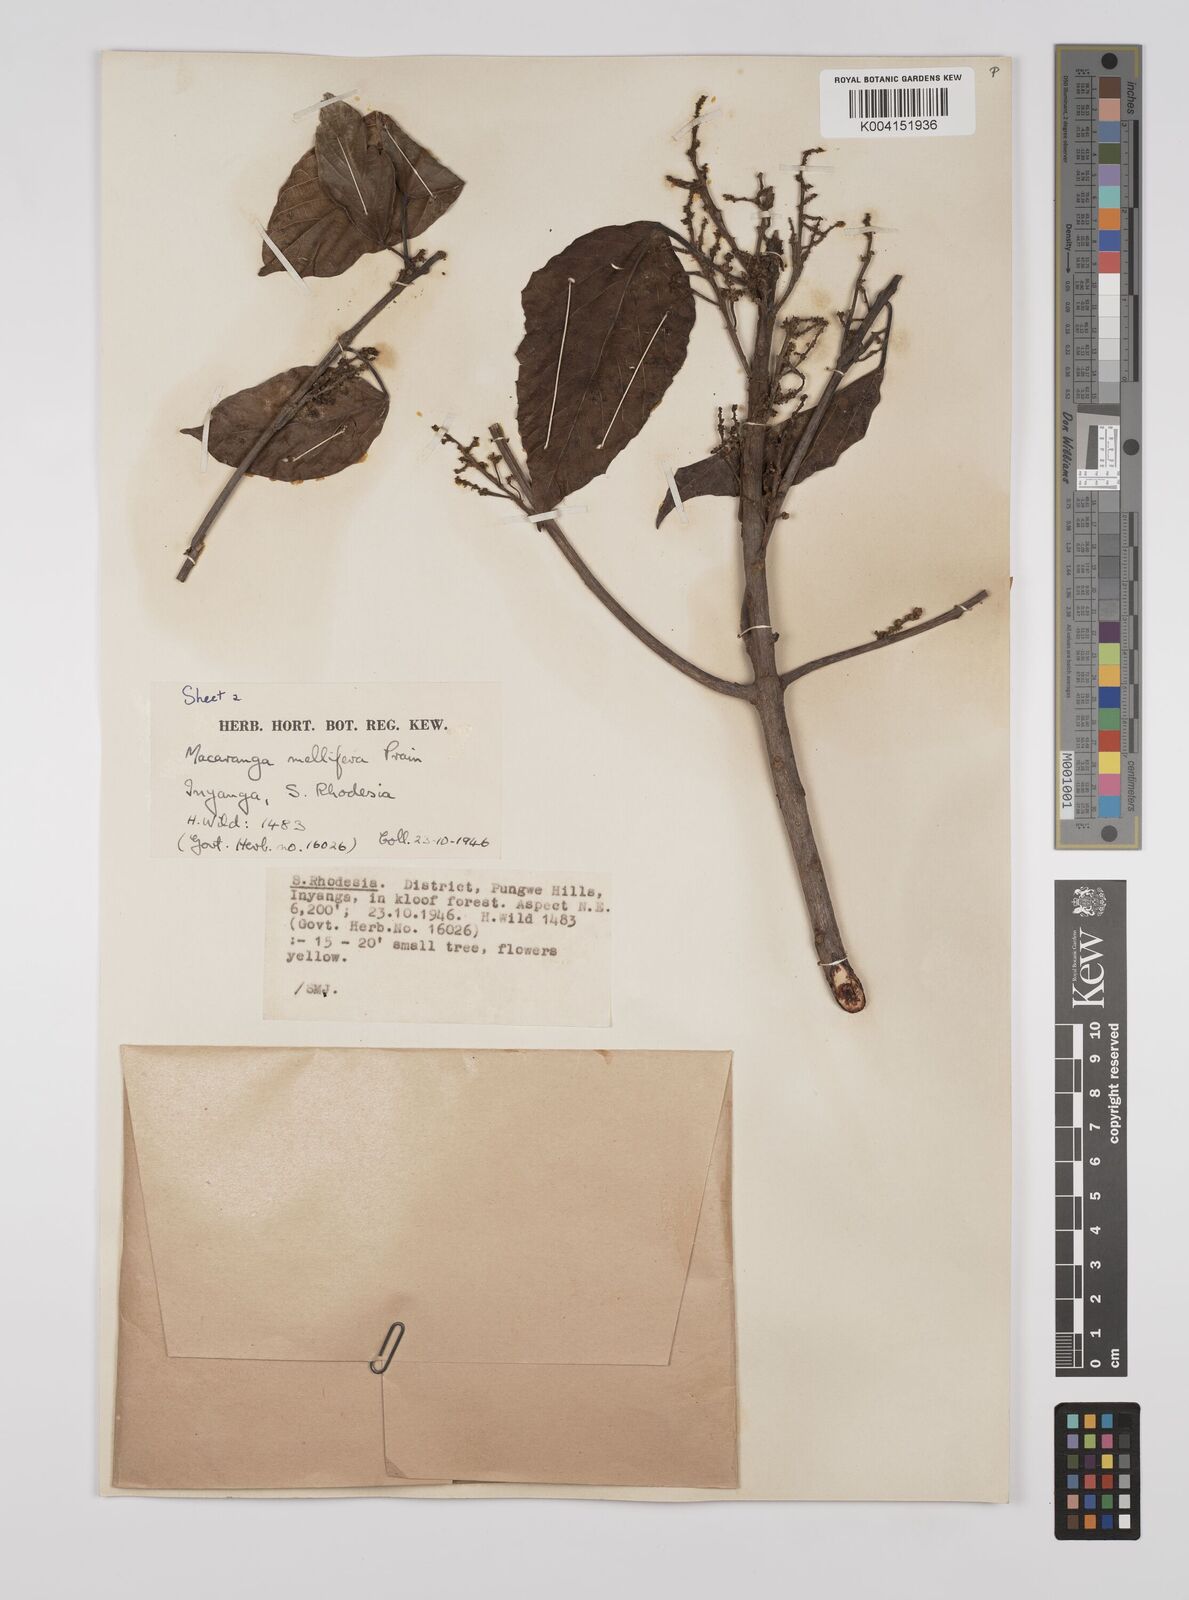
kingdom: Plantae
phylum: Tracheophyta
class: Magnoliopsida
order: Malpighiales
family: Euphorbiaceae
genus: Macaranga
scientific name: Macaranga mellifera
